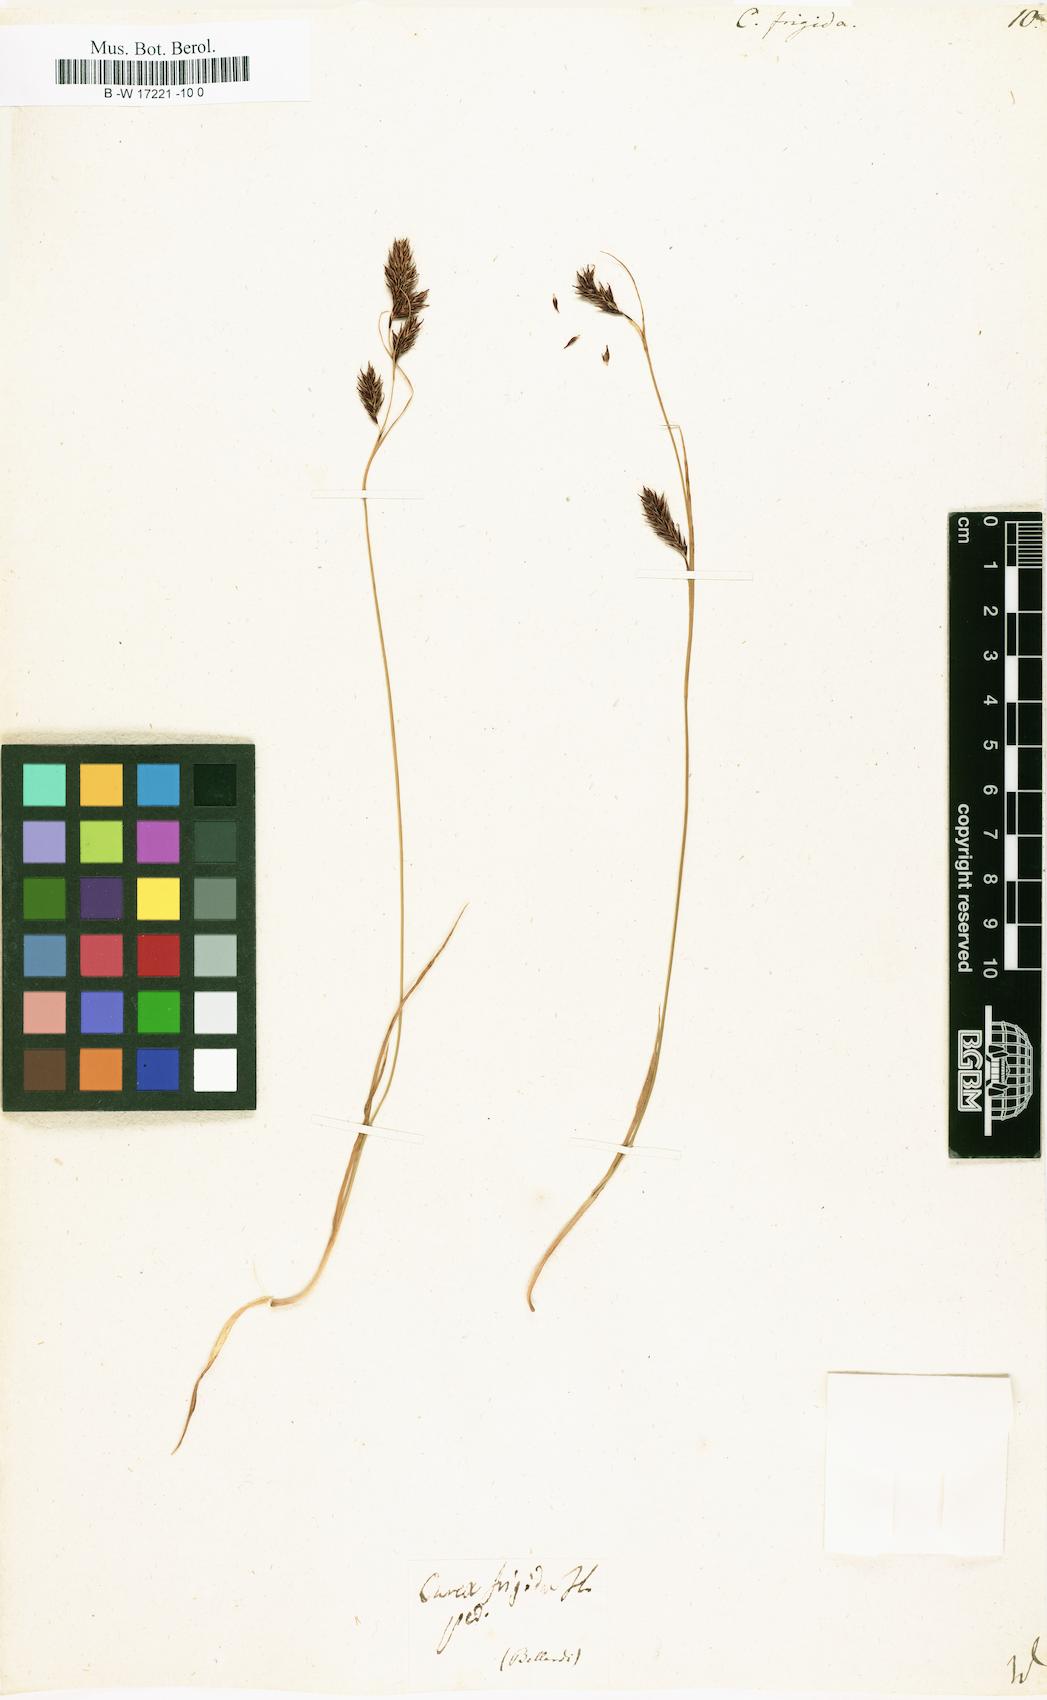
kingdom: Plantae
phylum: Tracheophyta
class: Liliopsida
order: Poales
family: Cyperaceae
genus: Carex
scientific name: Carex frigida
